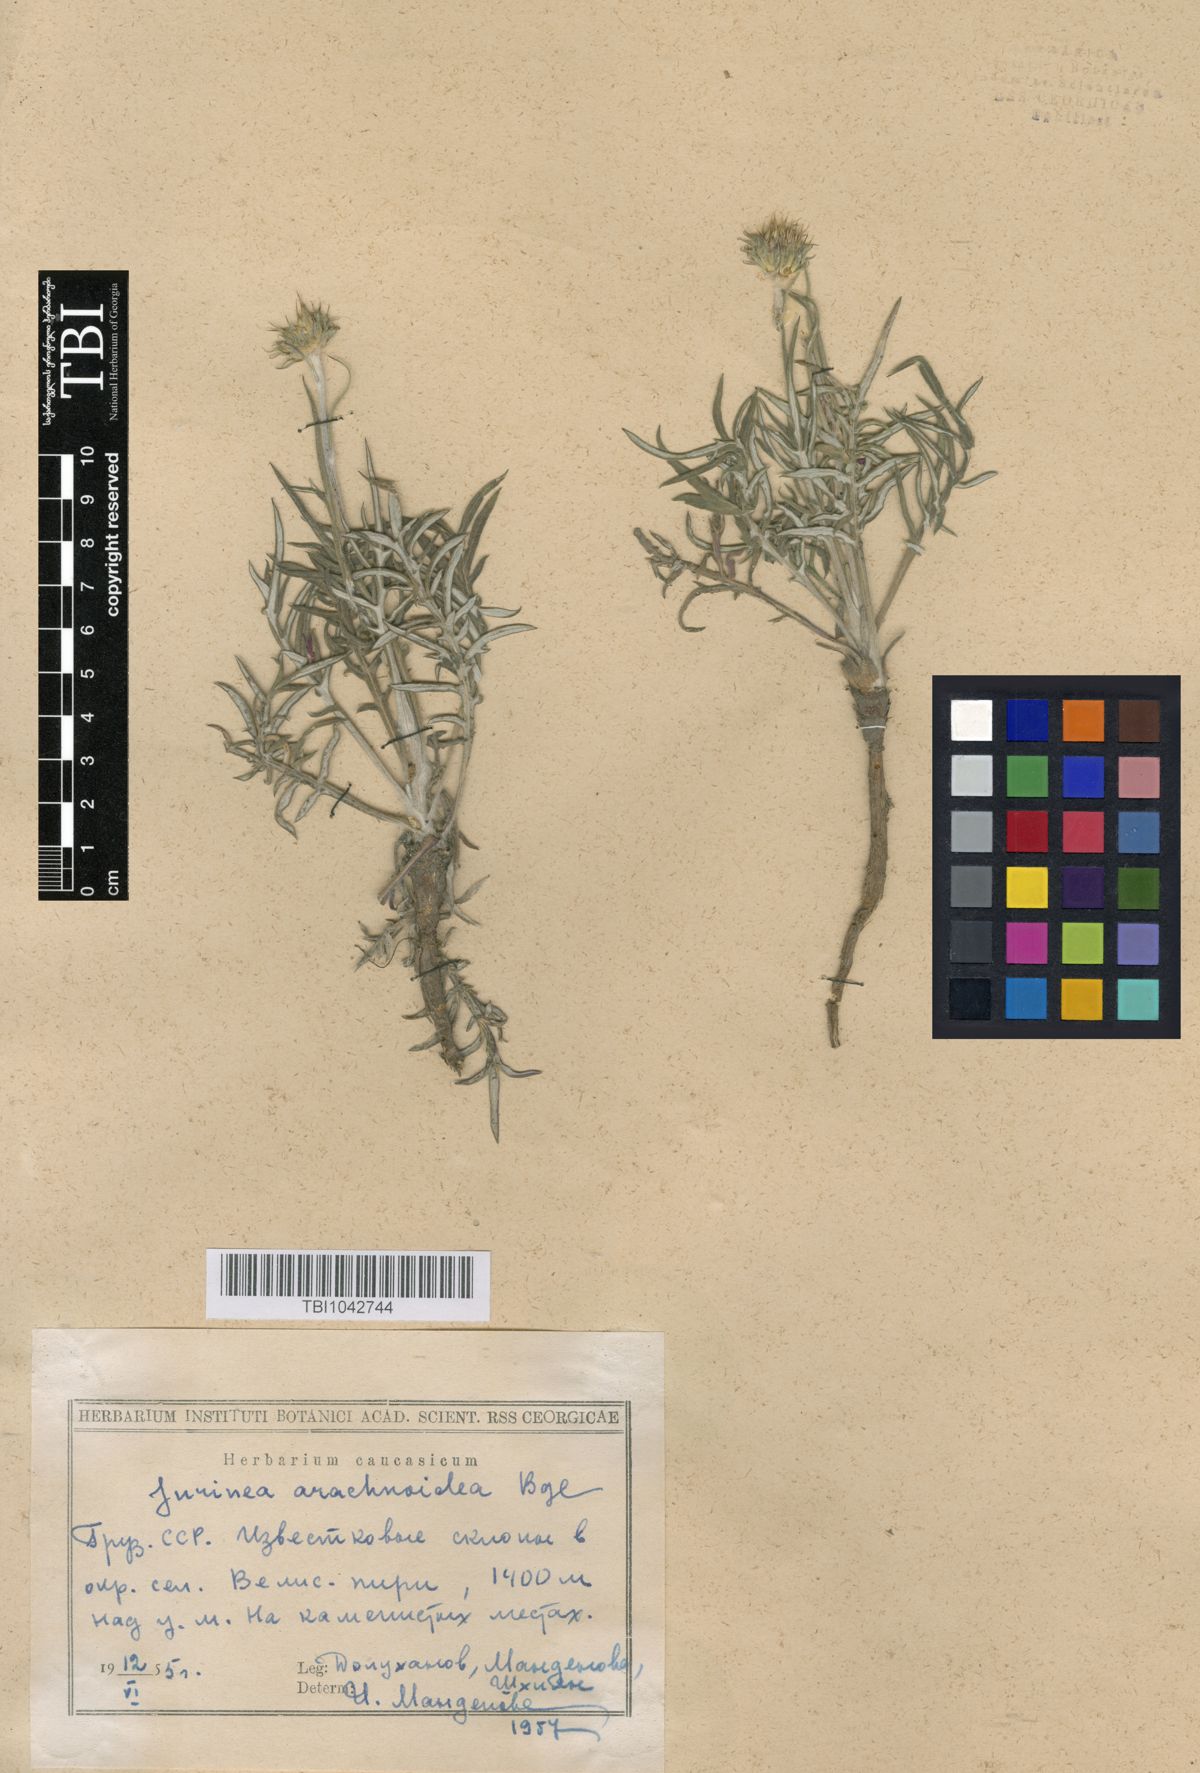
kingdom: Plantae
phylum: Tracheophyta
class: Magnoliopsida
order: Asterales
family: Asteraceae
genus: Jurinea
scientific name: Jurinea blanda
